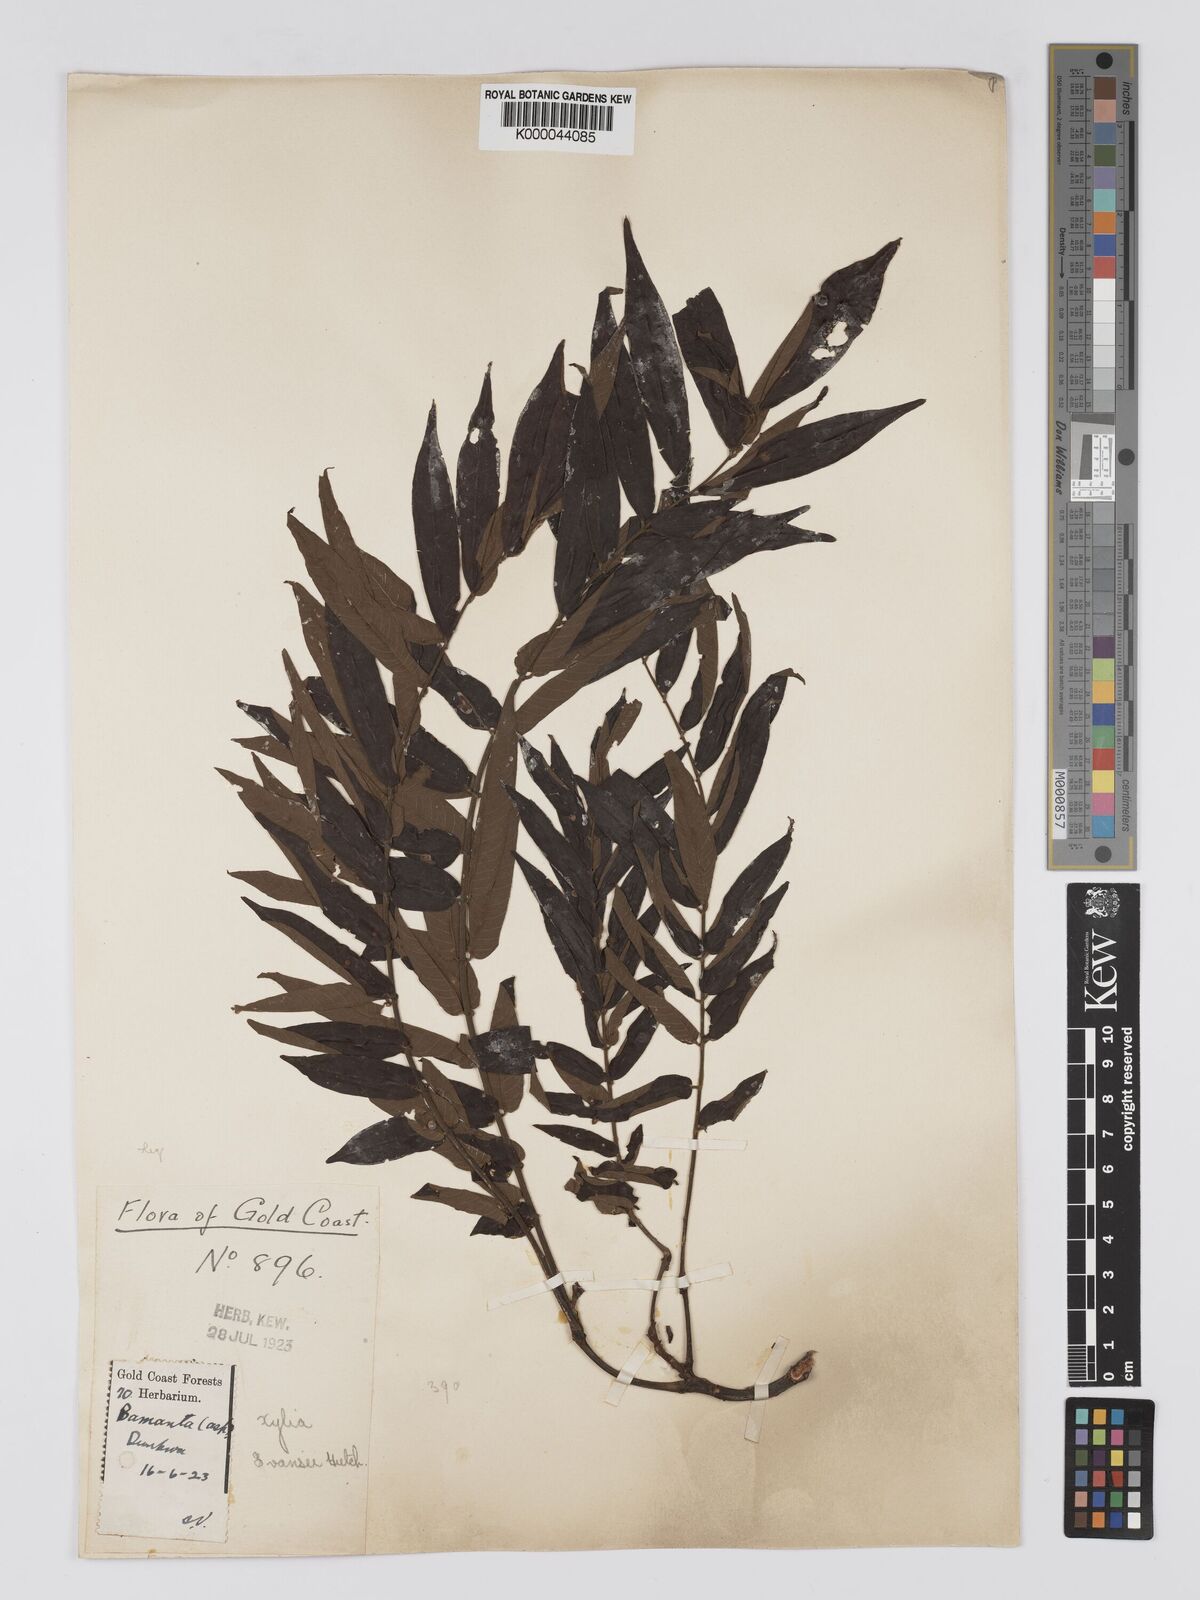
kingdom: Plantae
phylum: Tracheophyta
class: Magnoliopsida
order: Fabales
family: Fabaceae
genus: Xylia
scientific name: Xylia evansii
